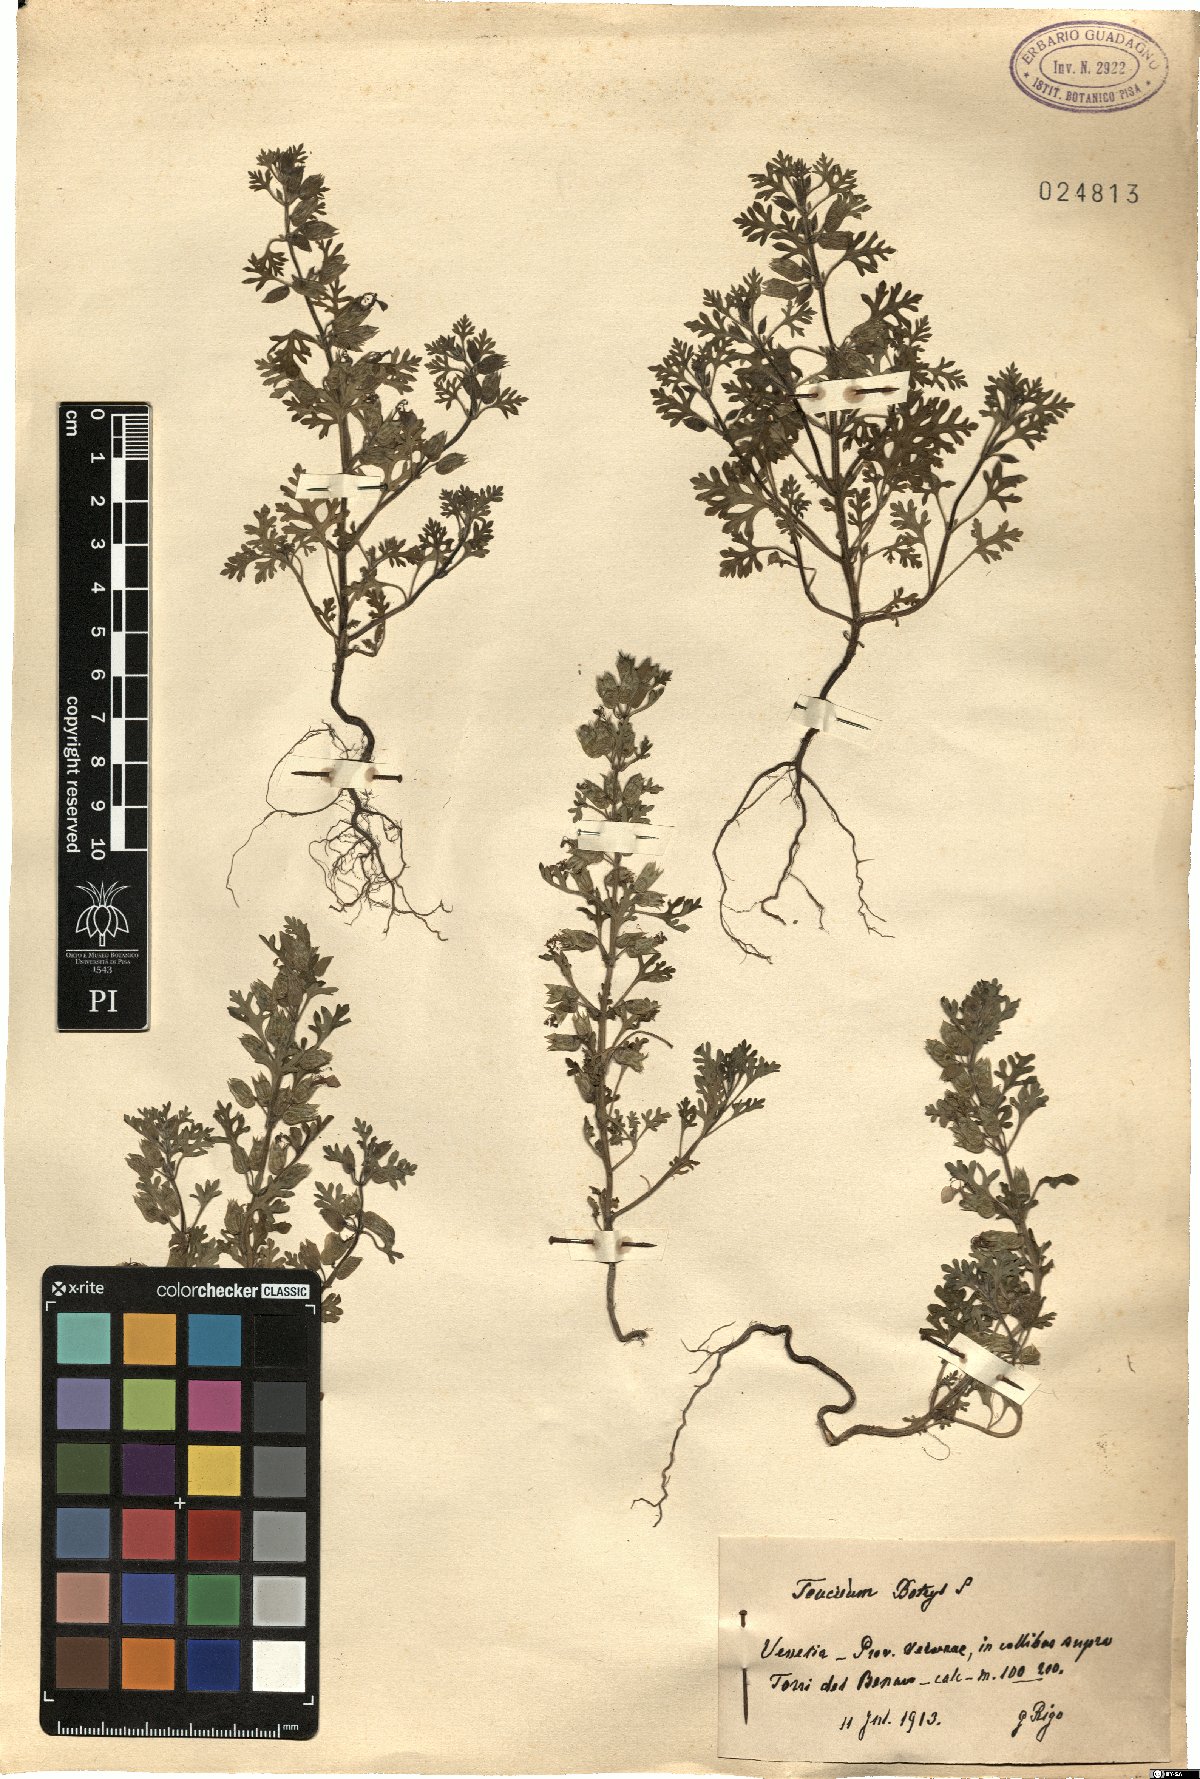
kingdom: Plantae
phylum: Tracheophyta
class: Magnoliopsida
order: Lamiales
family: Lamiaceae
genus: Teucrium
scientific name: Teucrium botrys
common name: Cut-leaved germander
